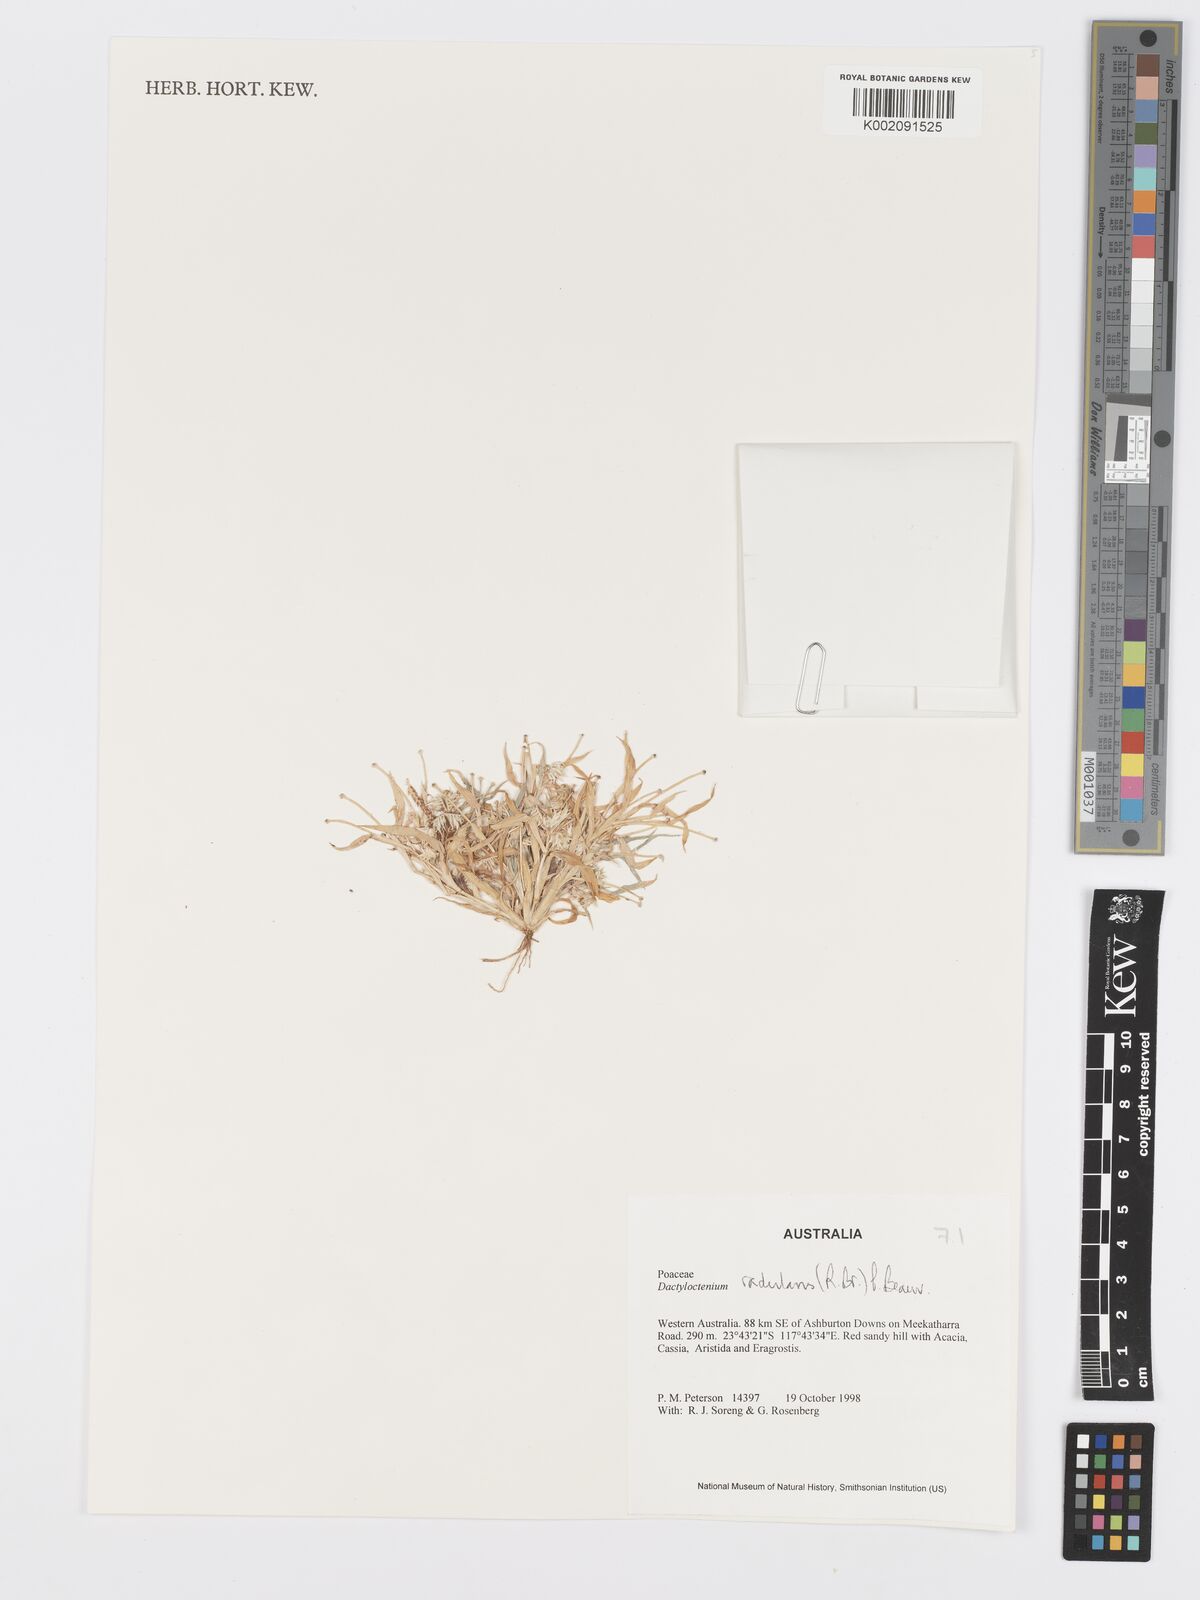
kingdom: Plantae
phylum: Tracheophyta
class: Liliopsida
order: Poales
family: Poaceae
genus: Dactyloctenium
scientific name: Dactyloctenium radulans
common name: Button-grass
